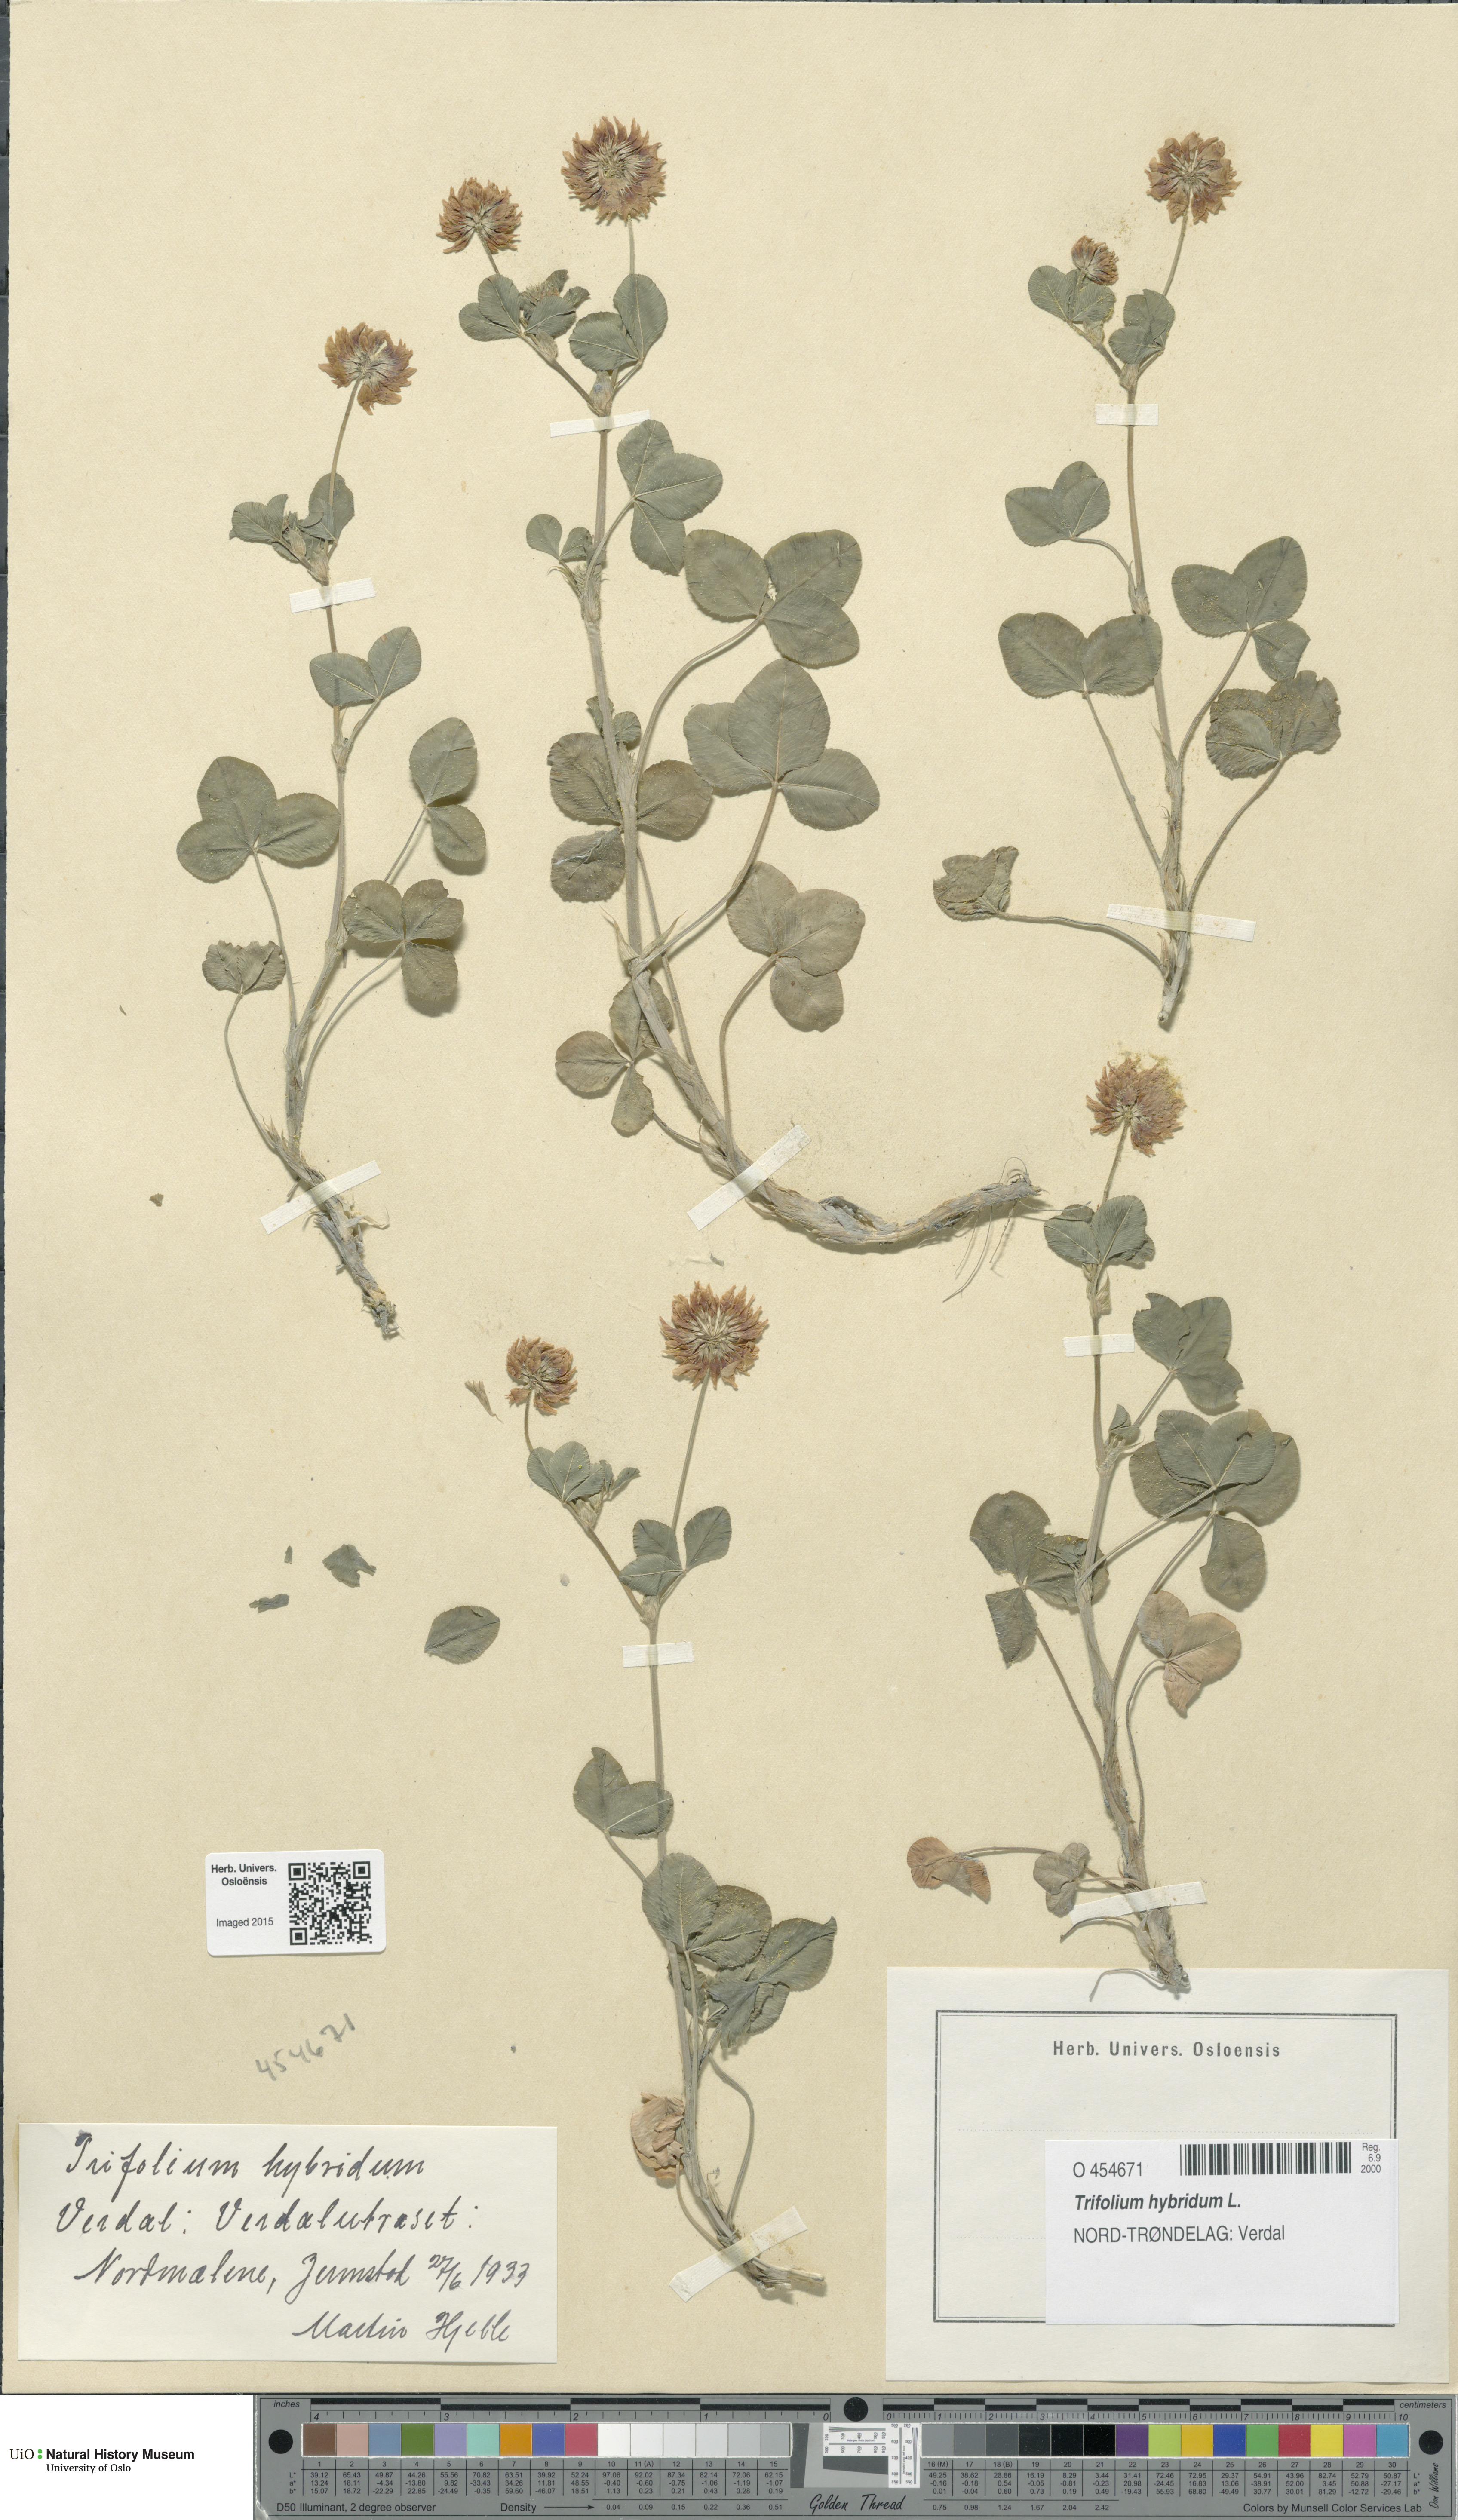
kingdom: Plantae
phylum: Tracheophyta
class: Magnoliopsida
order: Fabales
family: Fabaceae
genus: Trifolium
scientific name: Trifolium hybridum
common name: Alsike clover
